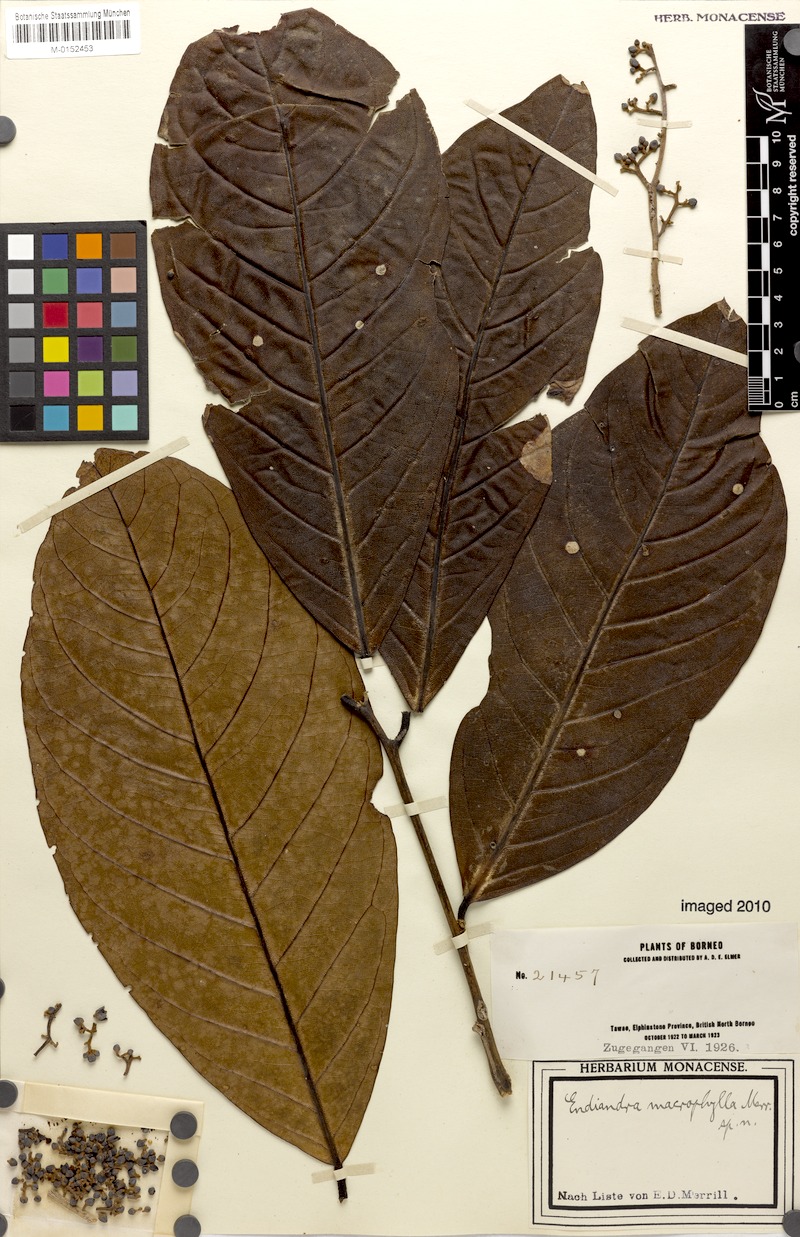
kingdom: Plantae
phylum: Tracheophyta
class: Magnoliopsida
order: Laurales
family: Lauraceae
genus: Endiandra
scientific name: Endiandra macrophylla
